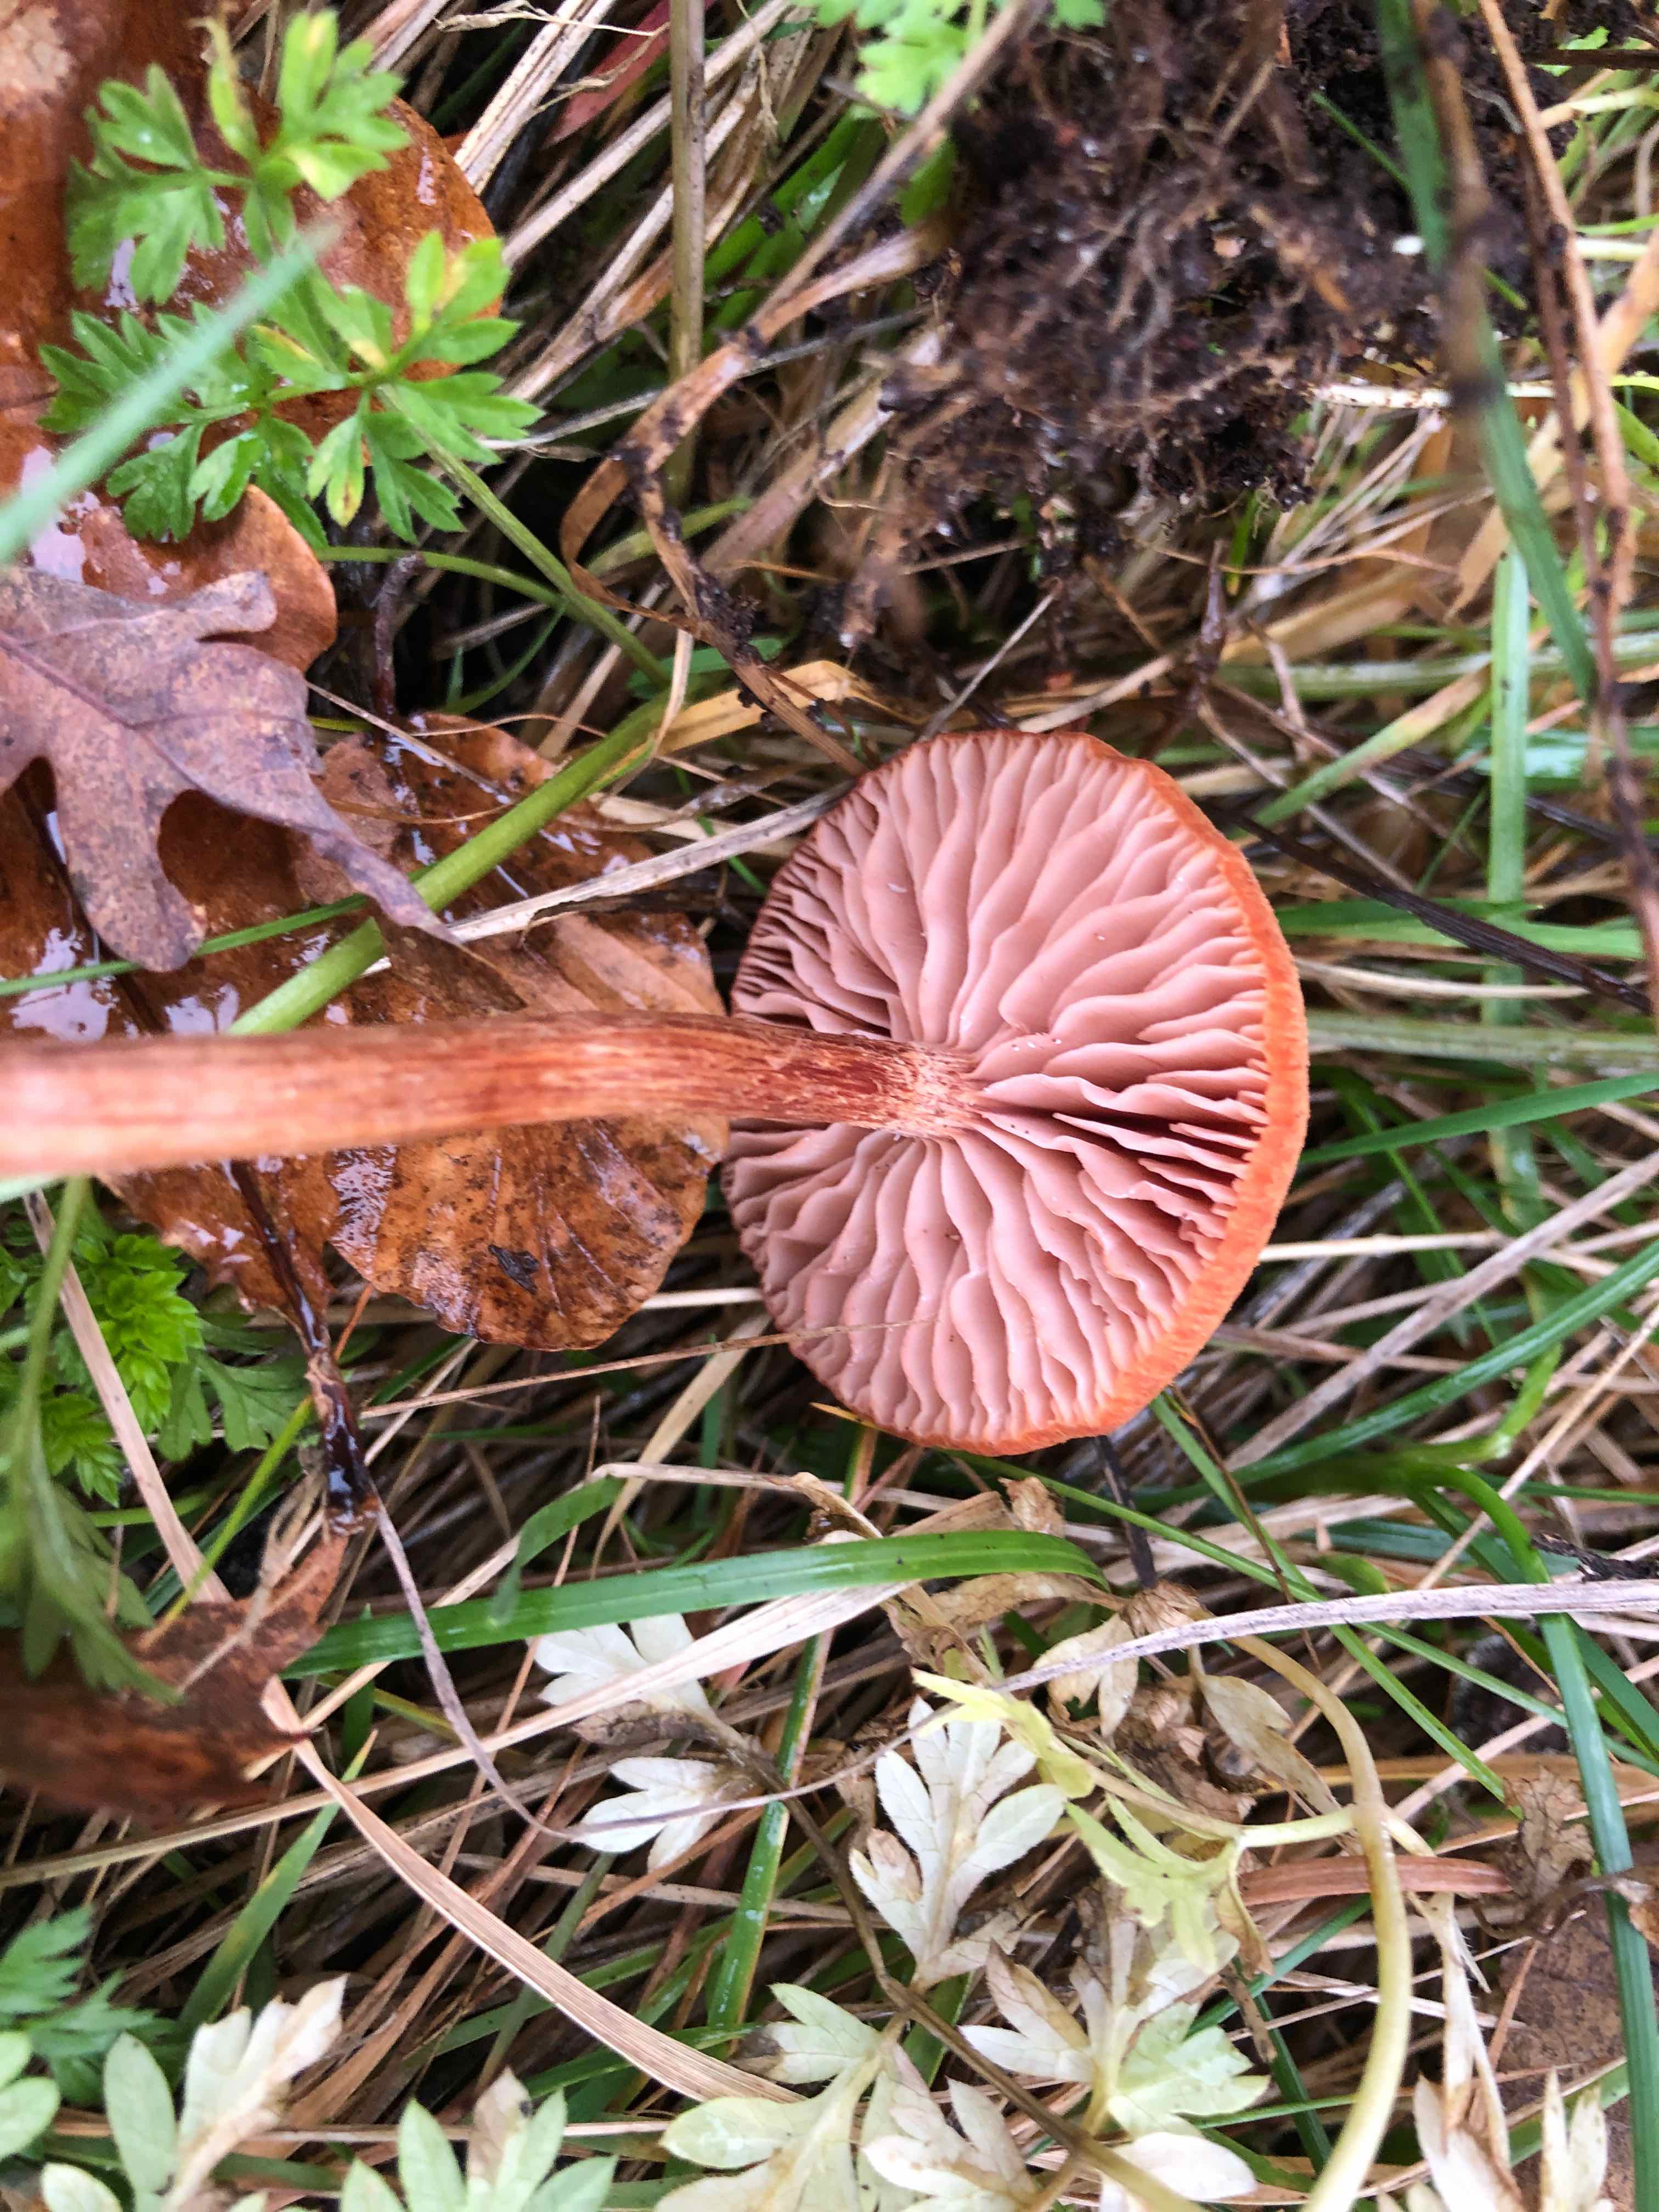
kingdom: Fungi
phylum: Basidiomycota
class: Agaricomycetes
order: Agaricales
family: Hydnangiaceae
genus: Laccaria
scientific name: Laccaria proxima
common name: stor ametysthat
